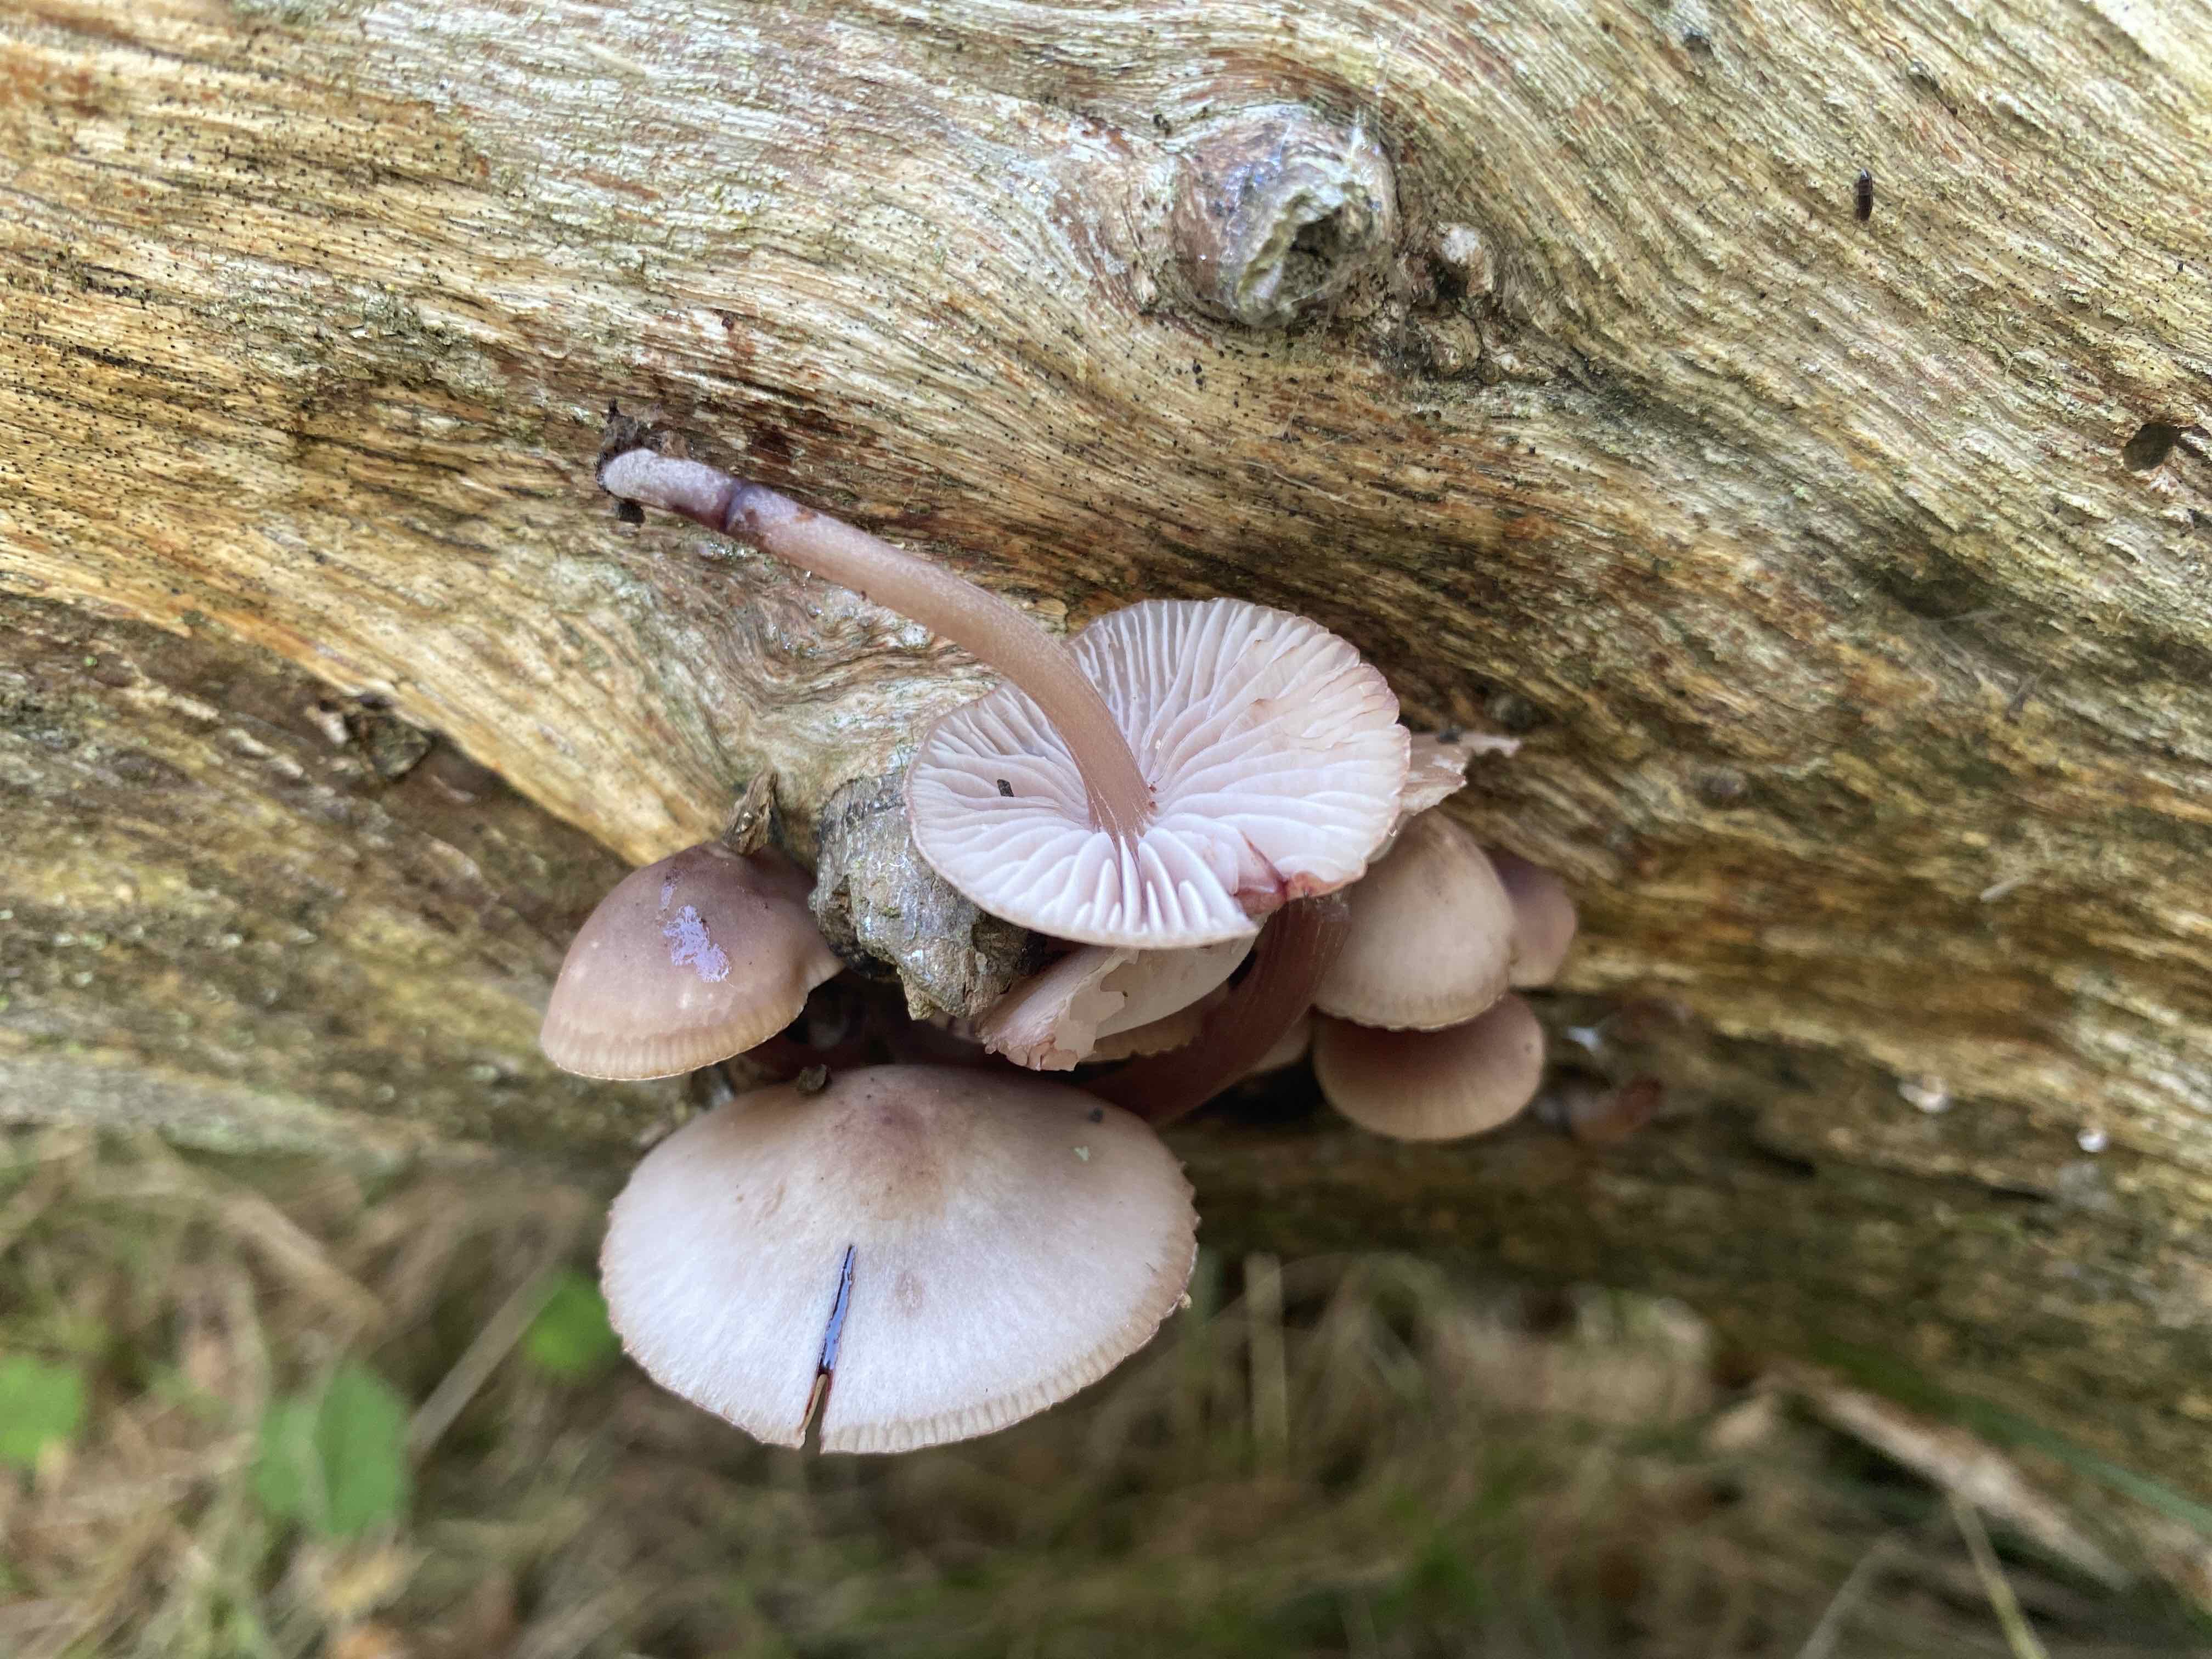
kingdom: Fungi
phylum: Basidiomycota
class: Agaricomycetes
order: Agaricales
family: Mycenaceae
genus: Mycena
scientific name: Mycena haematopus
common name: blødende huesvamp
